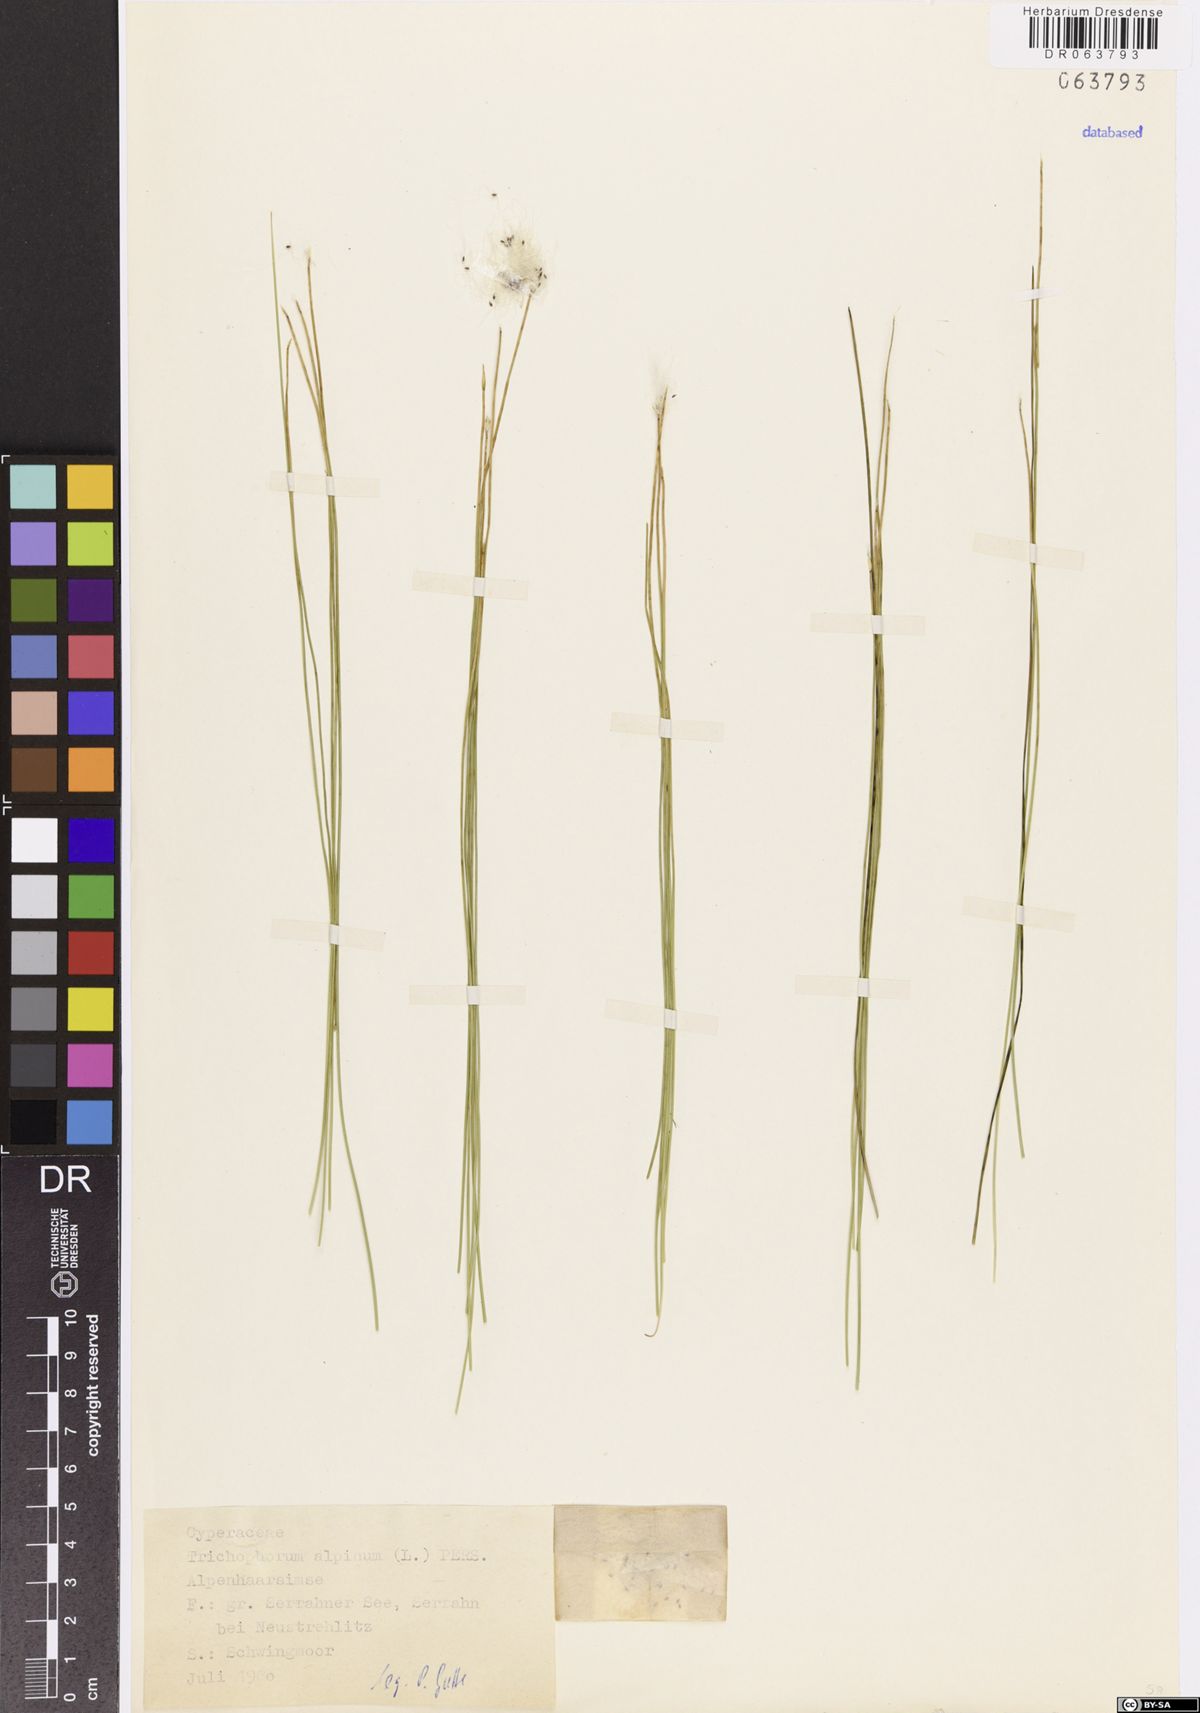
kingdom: Plantae
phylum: Tracheophyta
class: Liliopsida
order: Poales
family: Cyperaceae
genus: Trichophorum
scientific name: Trichophorum alpinum
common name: Alpine bulrush
